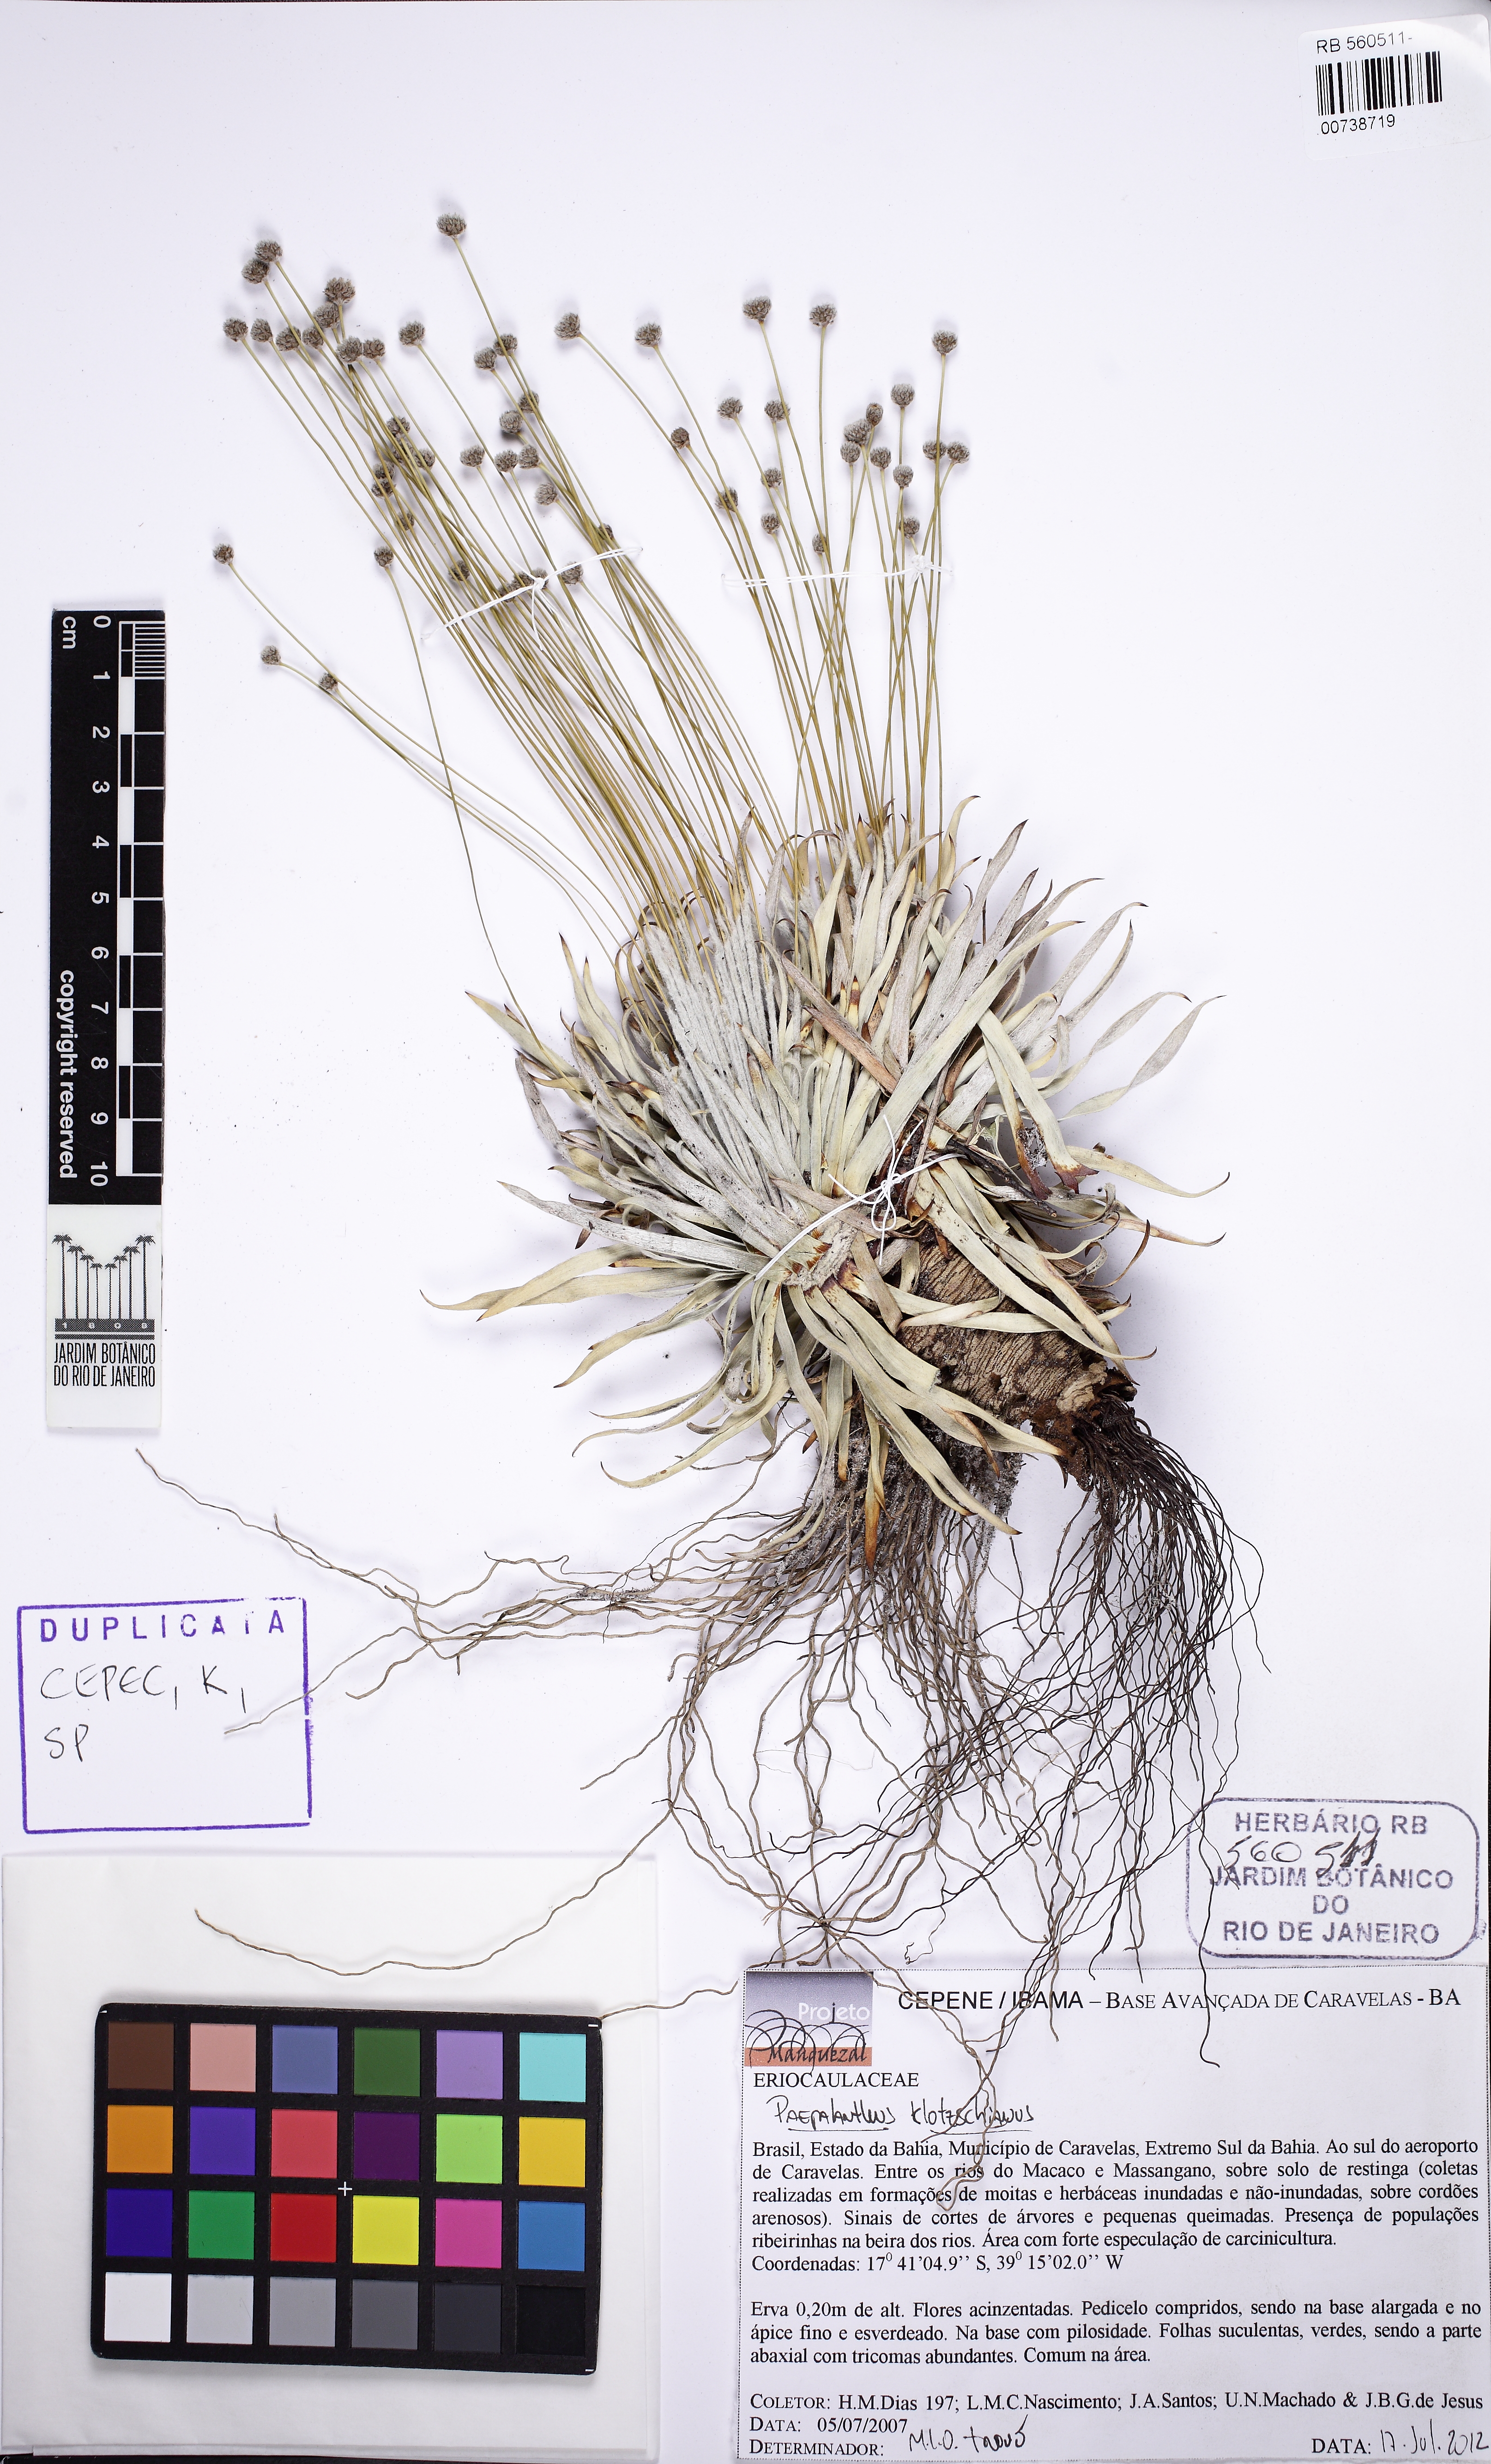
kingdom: Plantae
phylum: Tracheophyta
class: Liliopsida
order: Poales
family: Eriocaulaceae
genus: Paepalanthus
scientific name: Paepalanthus klotzschianus
